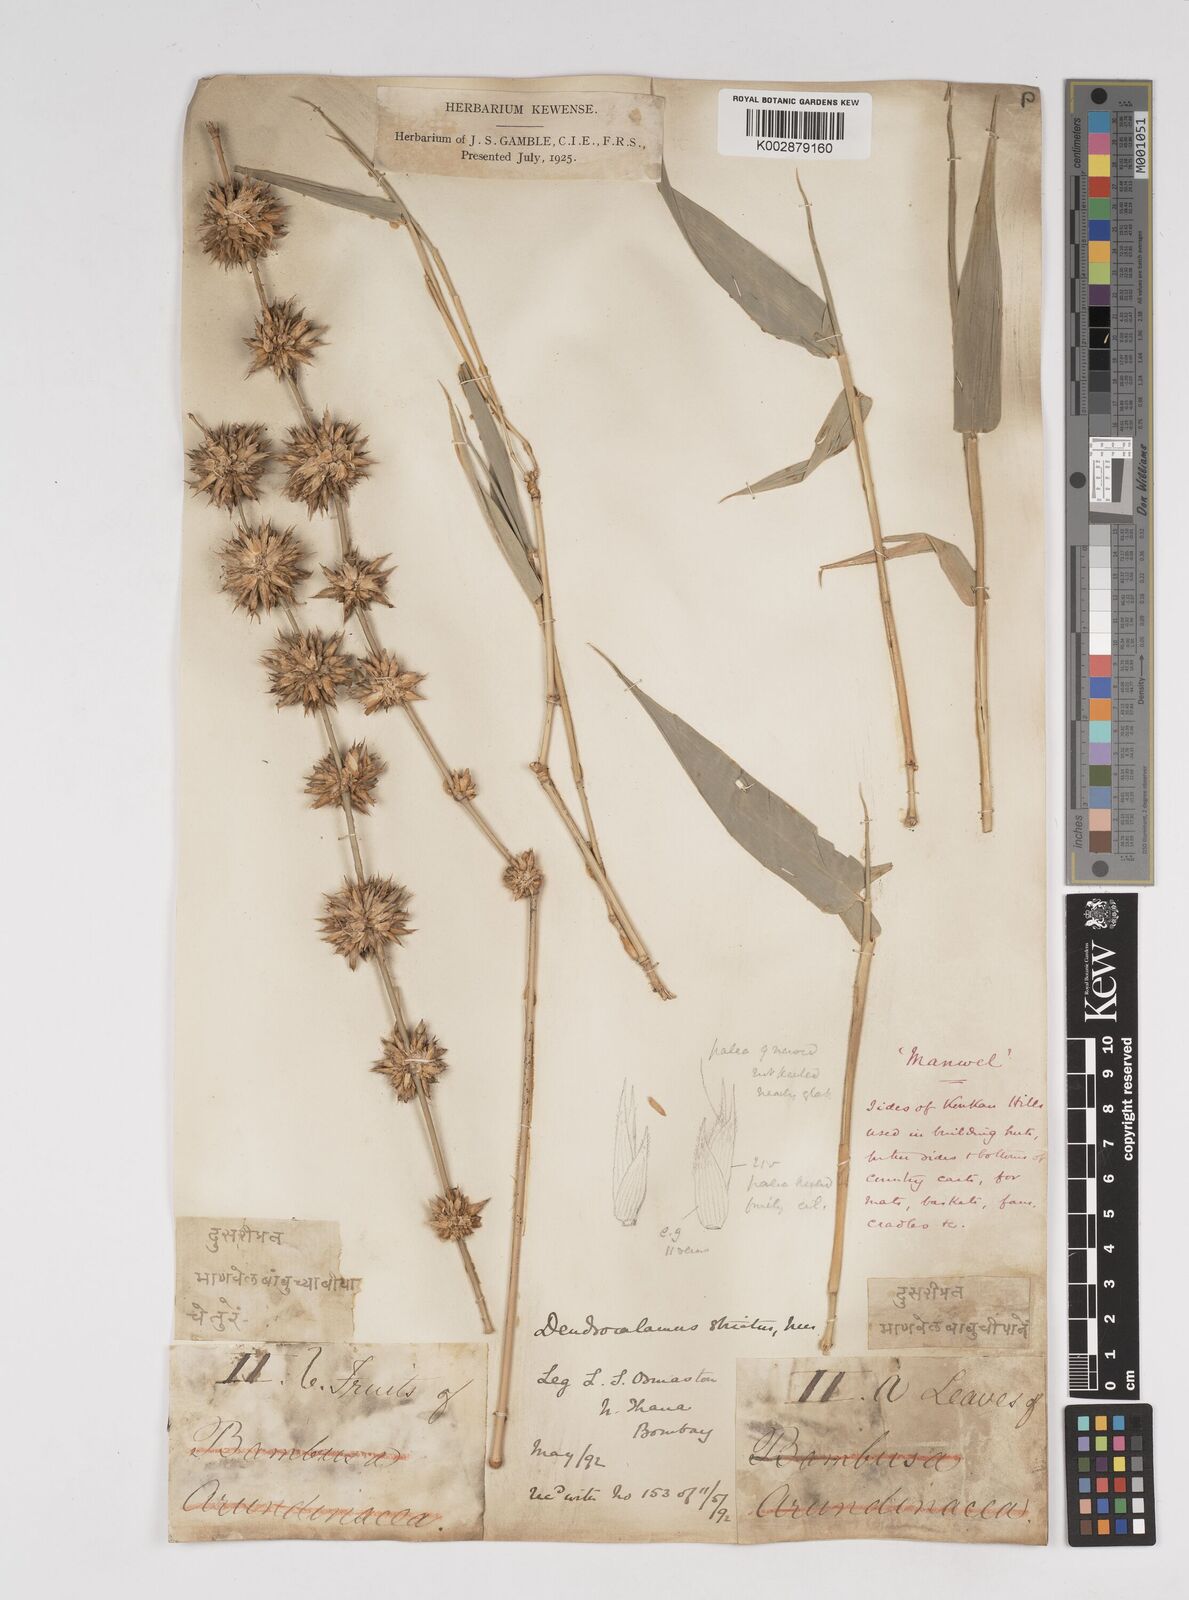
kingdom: Plantae
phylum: Tracheophyta
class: Liliopsida
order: Poales
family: Poaceae
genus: Dendrocalamus
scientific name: Dendrocalamus strictus
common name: Male bamboo
